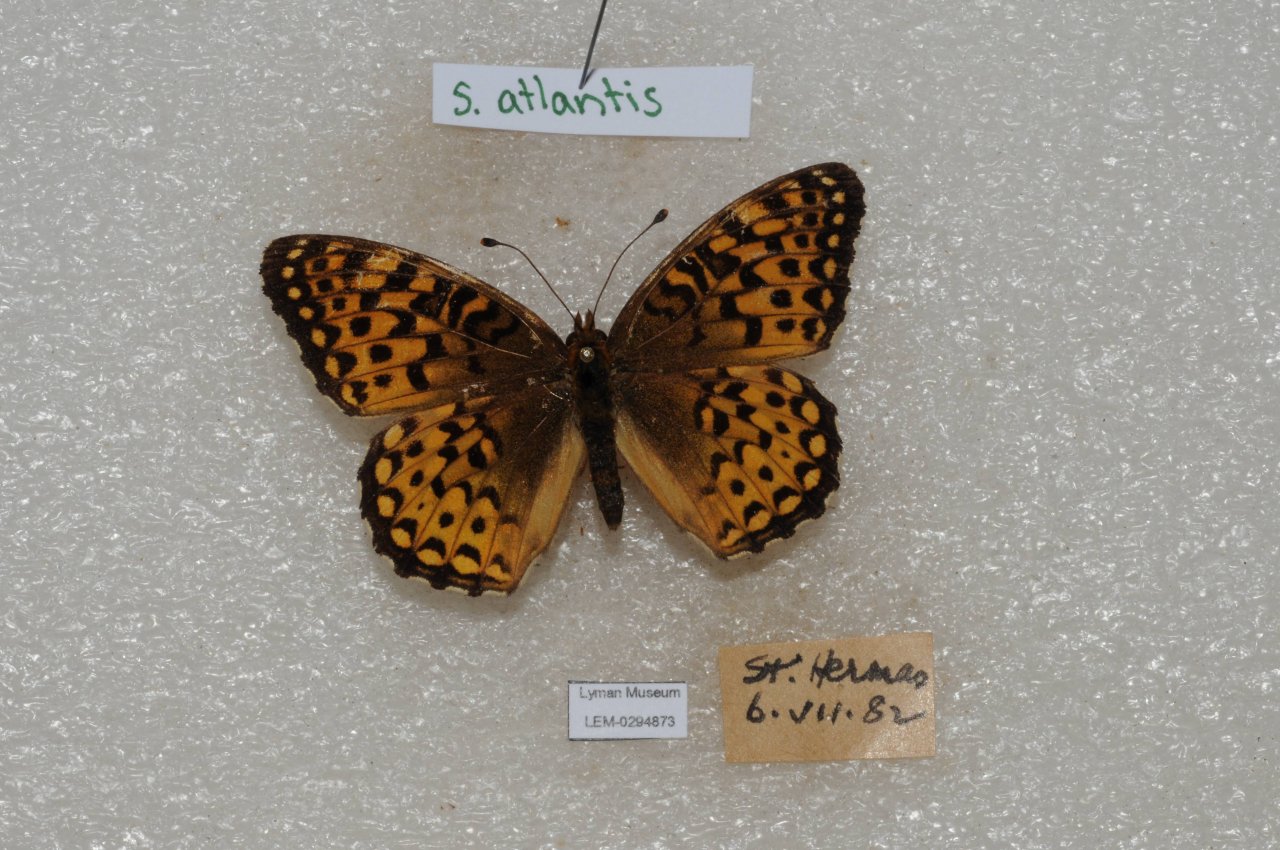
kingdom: Animalia
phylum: Arthropoda
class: Insecta
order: Lepidoptera
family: Nymphalidae
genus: Speyeria
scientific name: Speyeria atlantis
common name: Atlantis Fritillary
